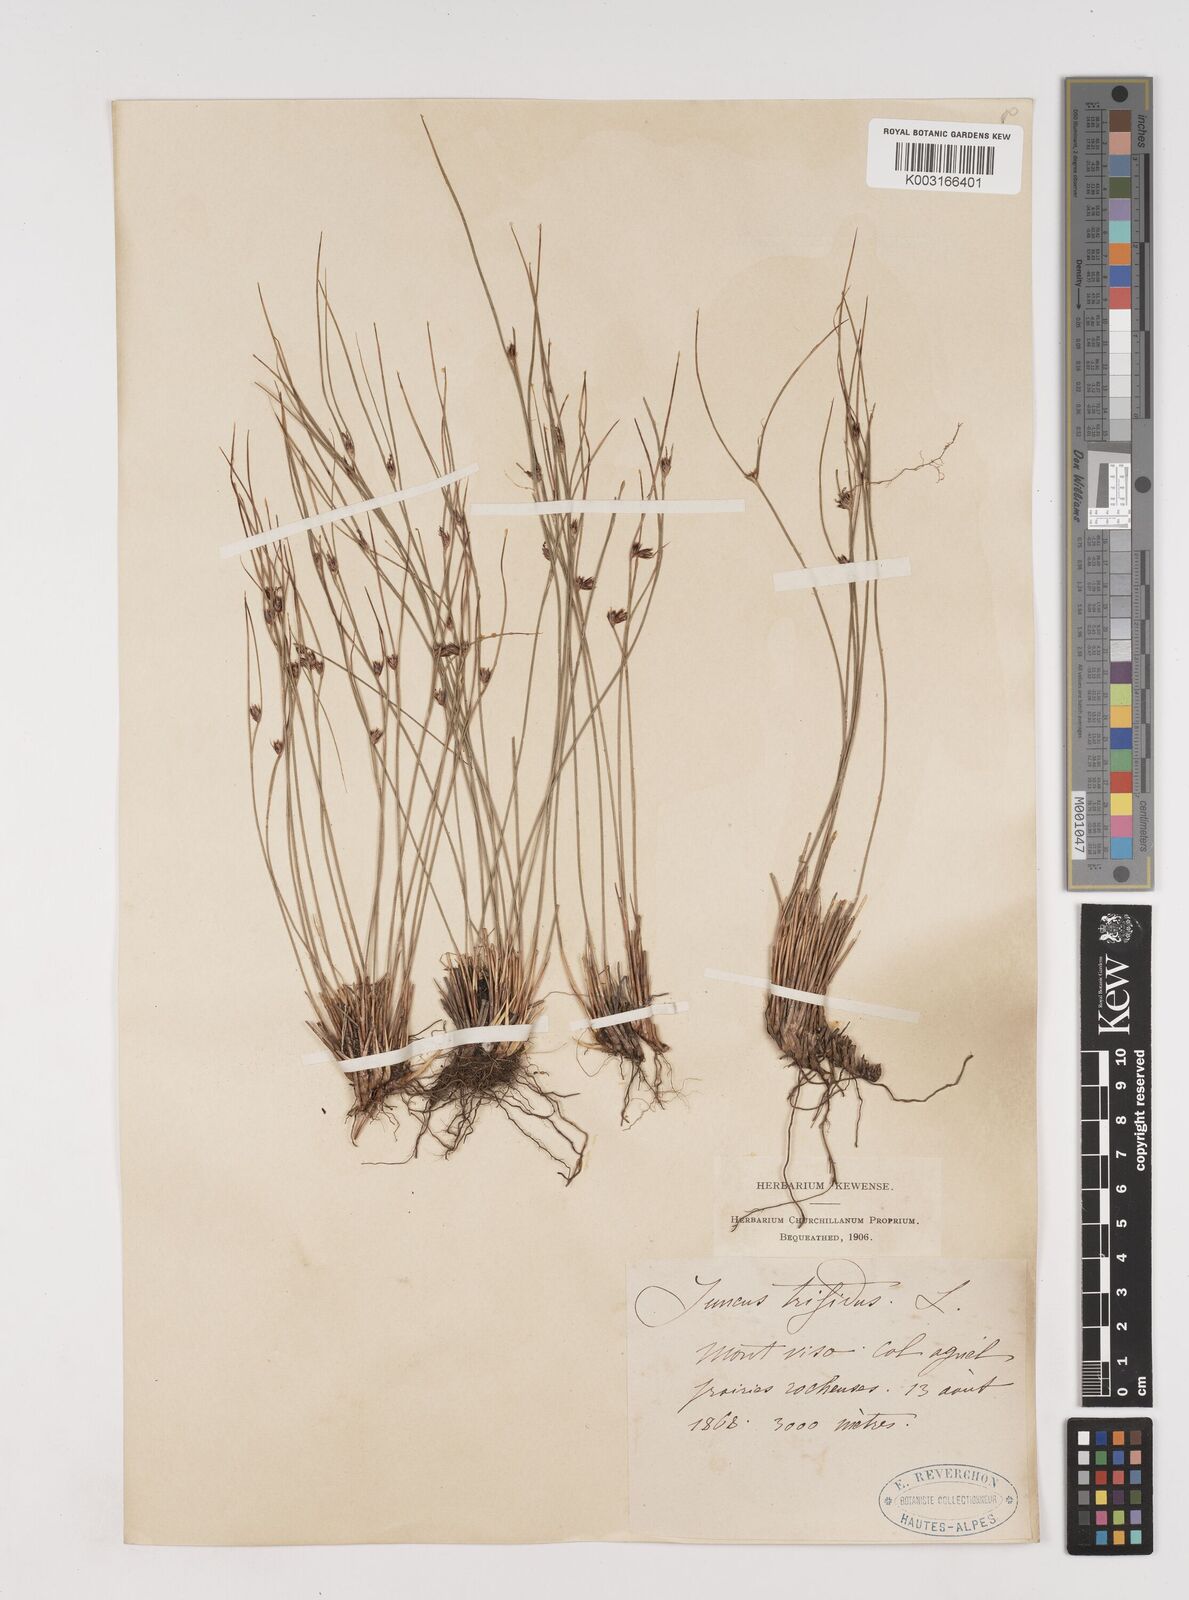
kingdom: Plantae
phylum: Tracheophyta
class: Liliopsida
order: Poales
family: Juncaceae
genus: Oreojuncus
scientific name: Oreojuncus trifidus
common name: Highland rush
